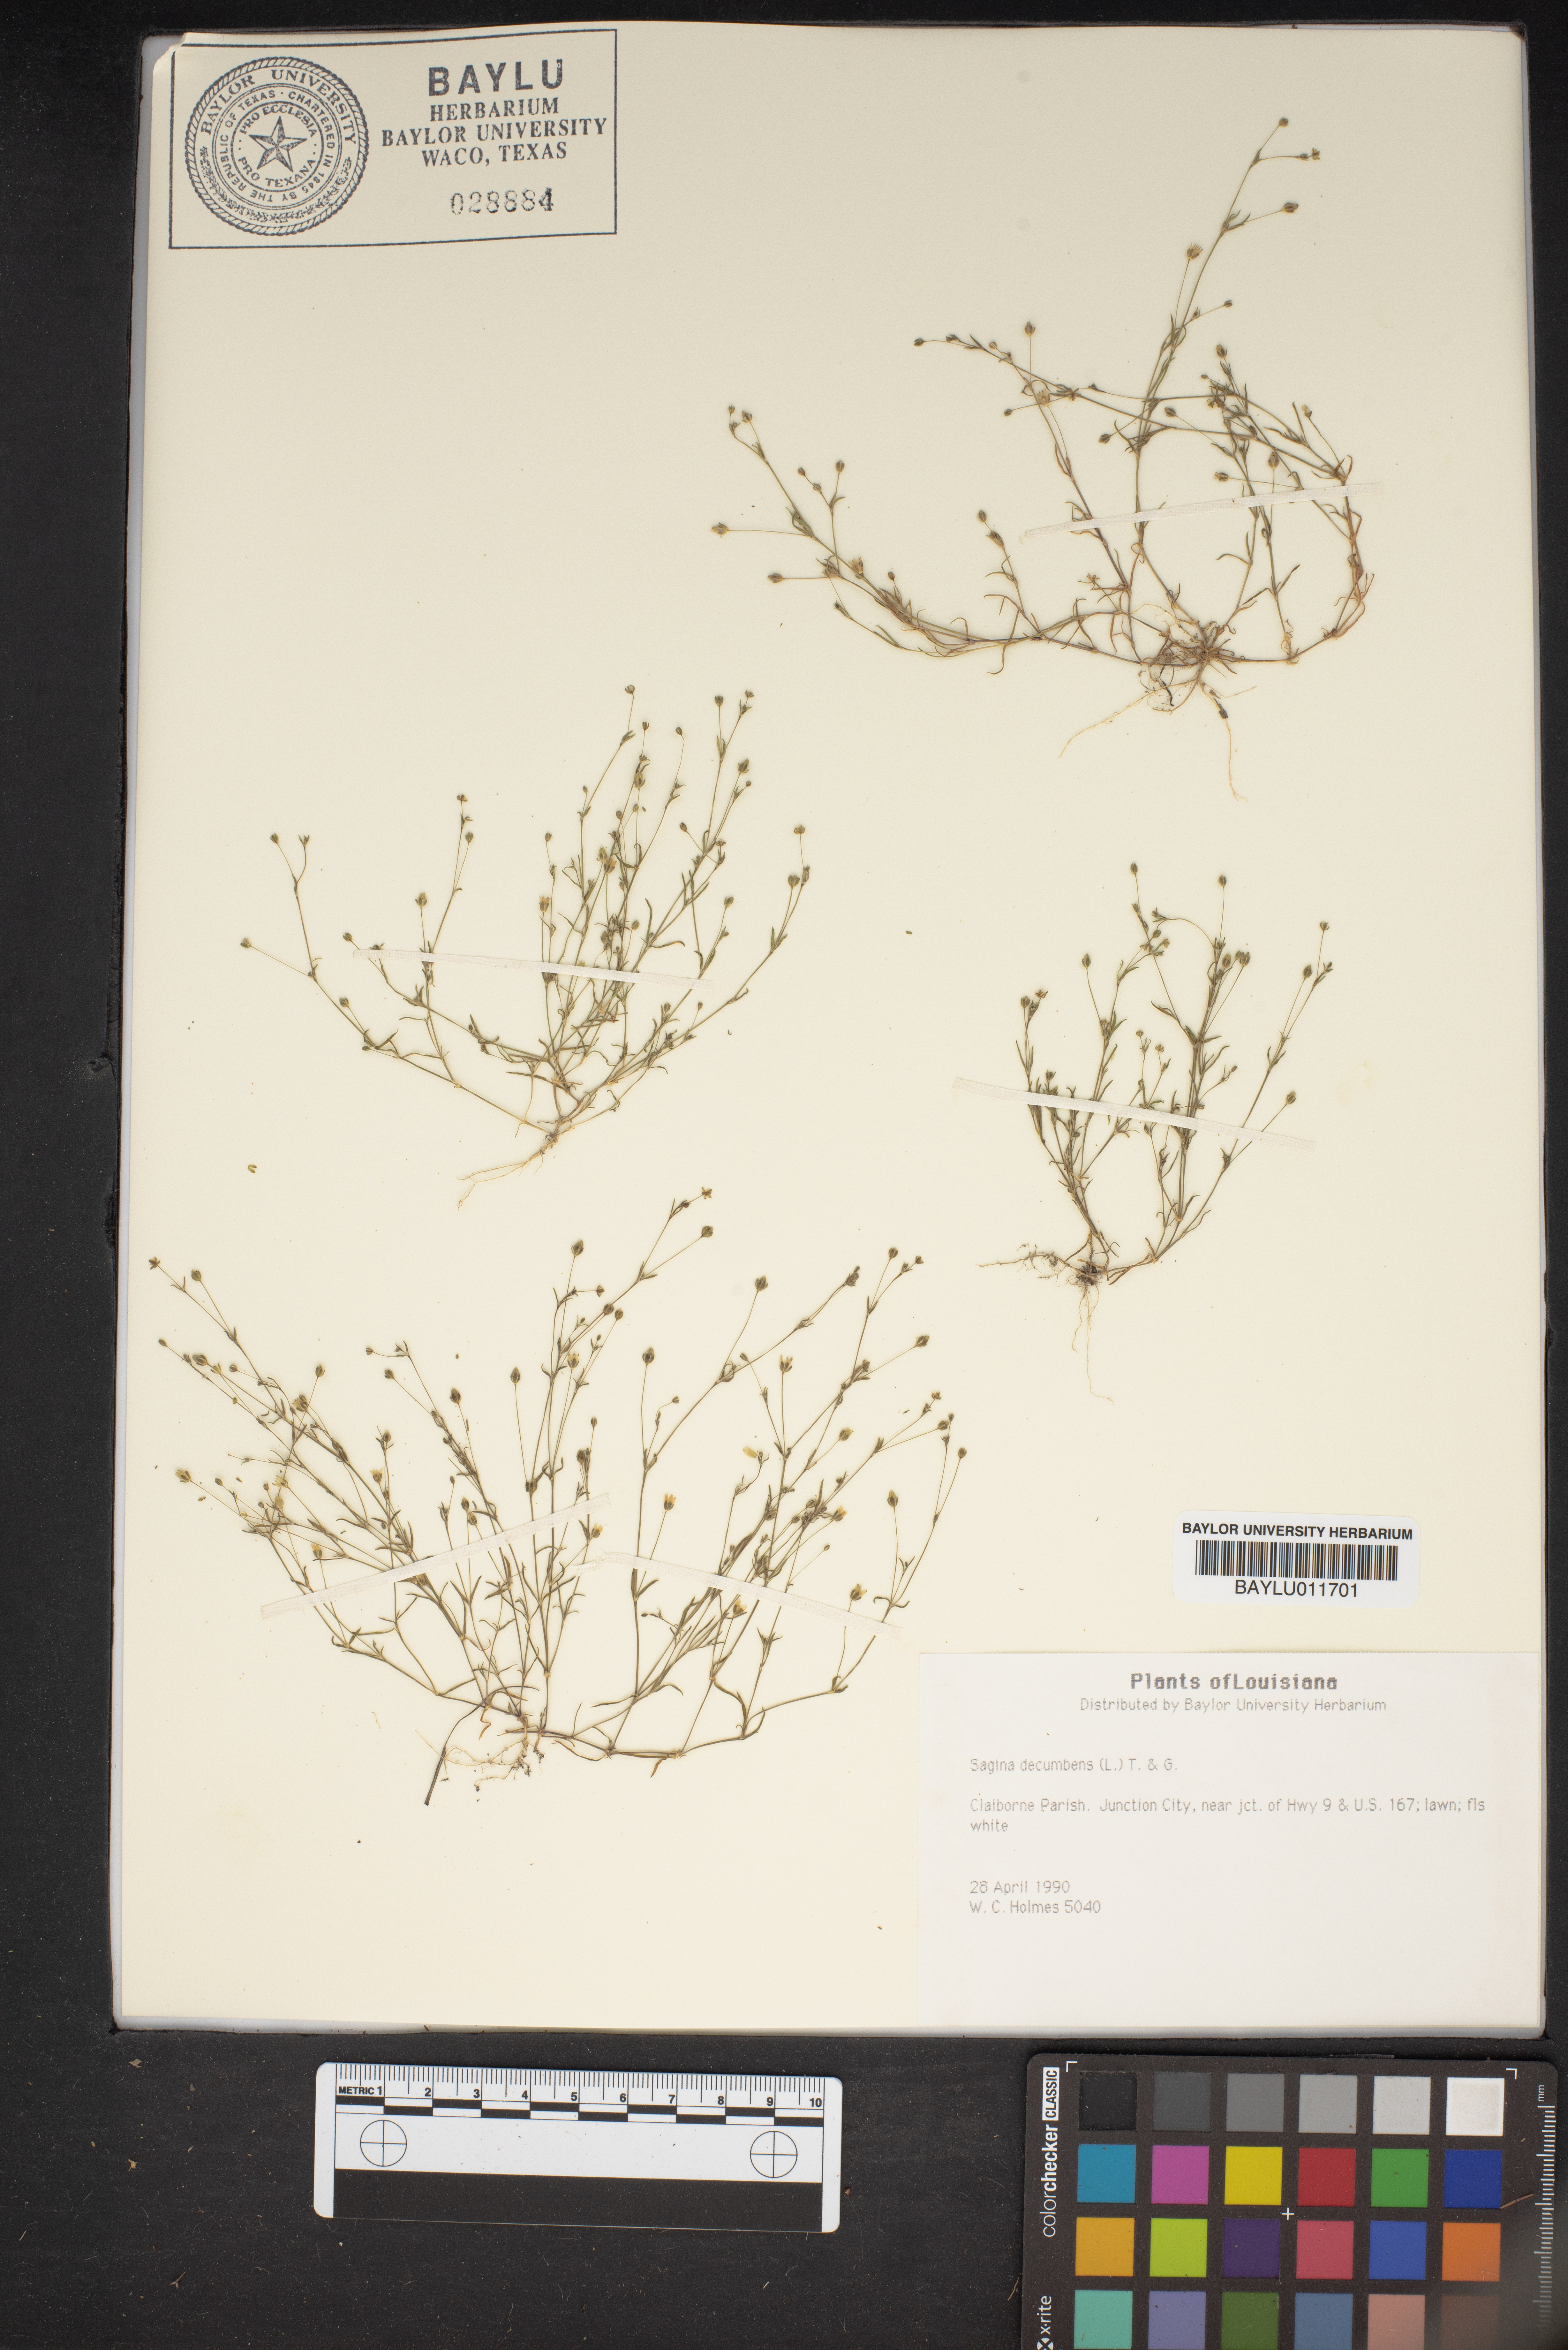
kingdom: Plantae
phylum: Tracheophyta
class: Magnoliopsida
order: Caryophyllales
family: Caryophyllaceae
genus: Sagina
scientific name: Sagina decumbens
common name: Decumbent pearlwort
